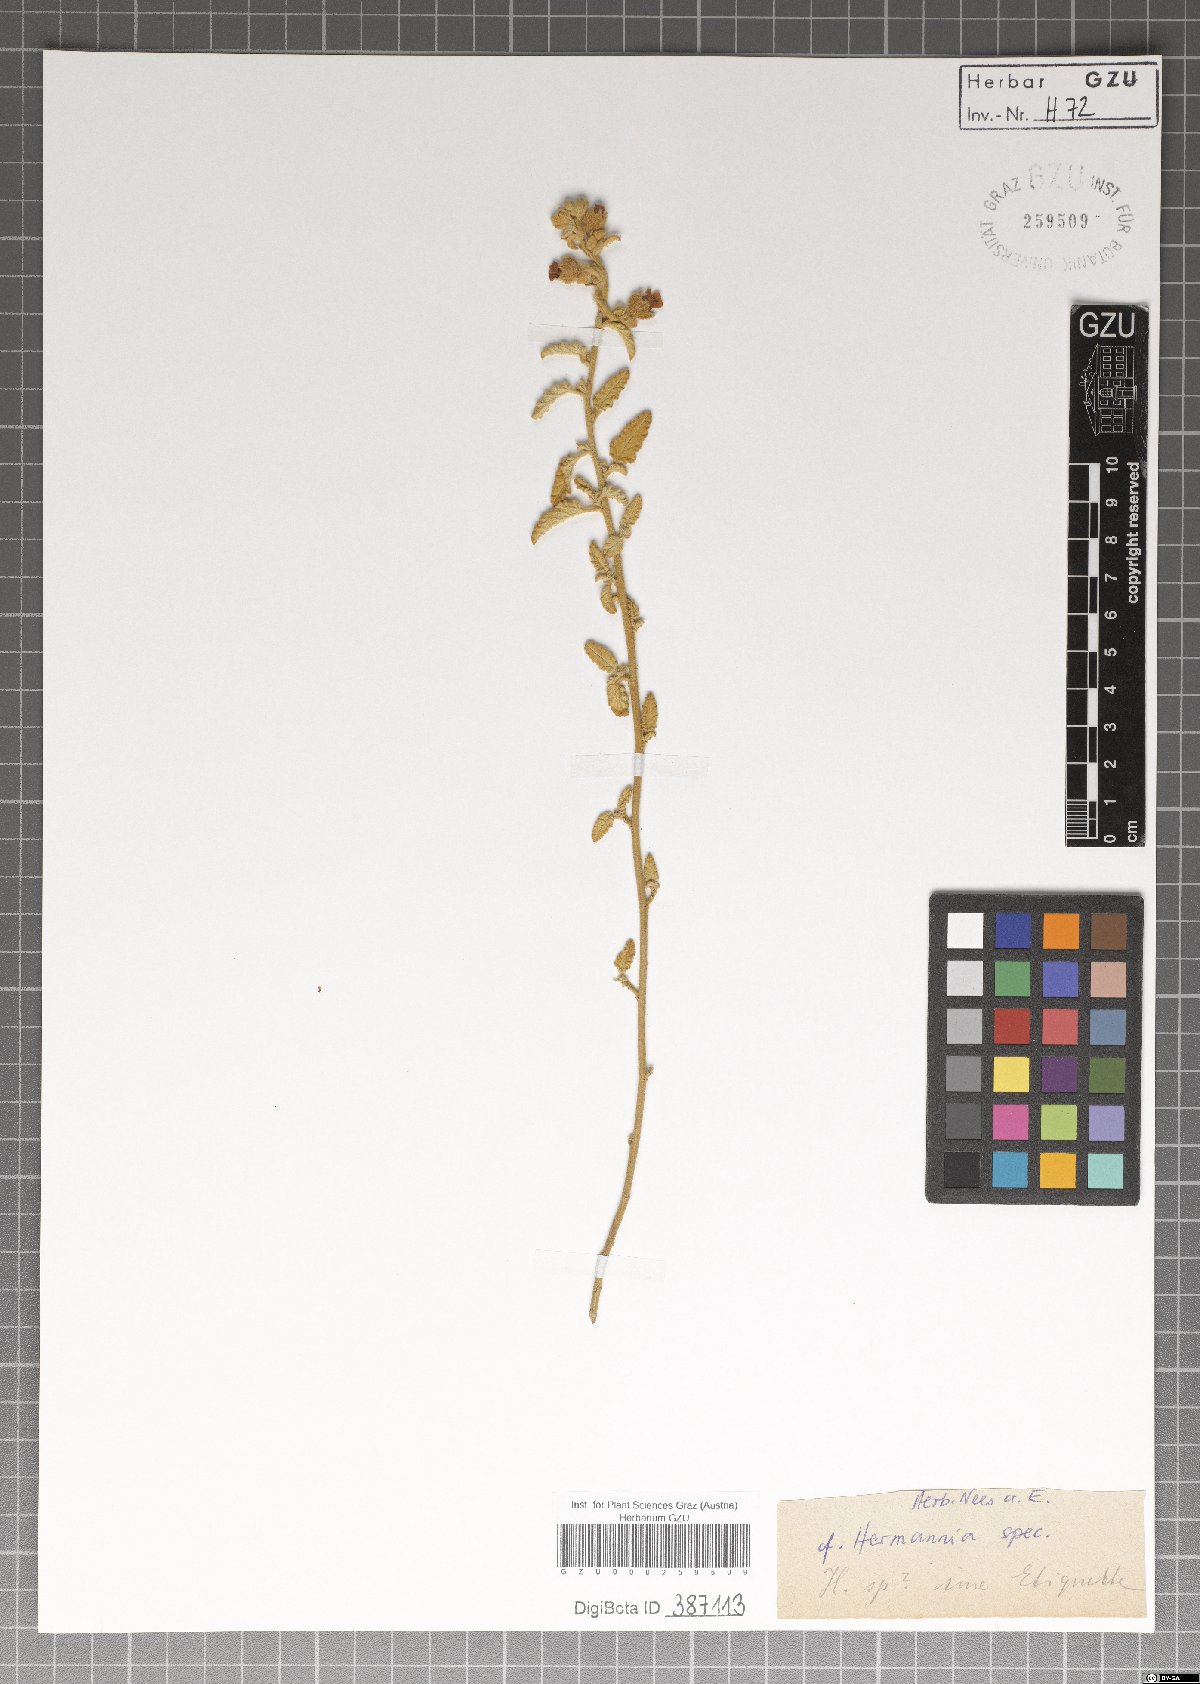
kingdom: Plantae
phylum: Tracheophyta
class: Magnoliopsida
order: Malvales
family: Malvaceae
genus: Hermannia
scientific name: Hermannia
